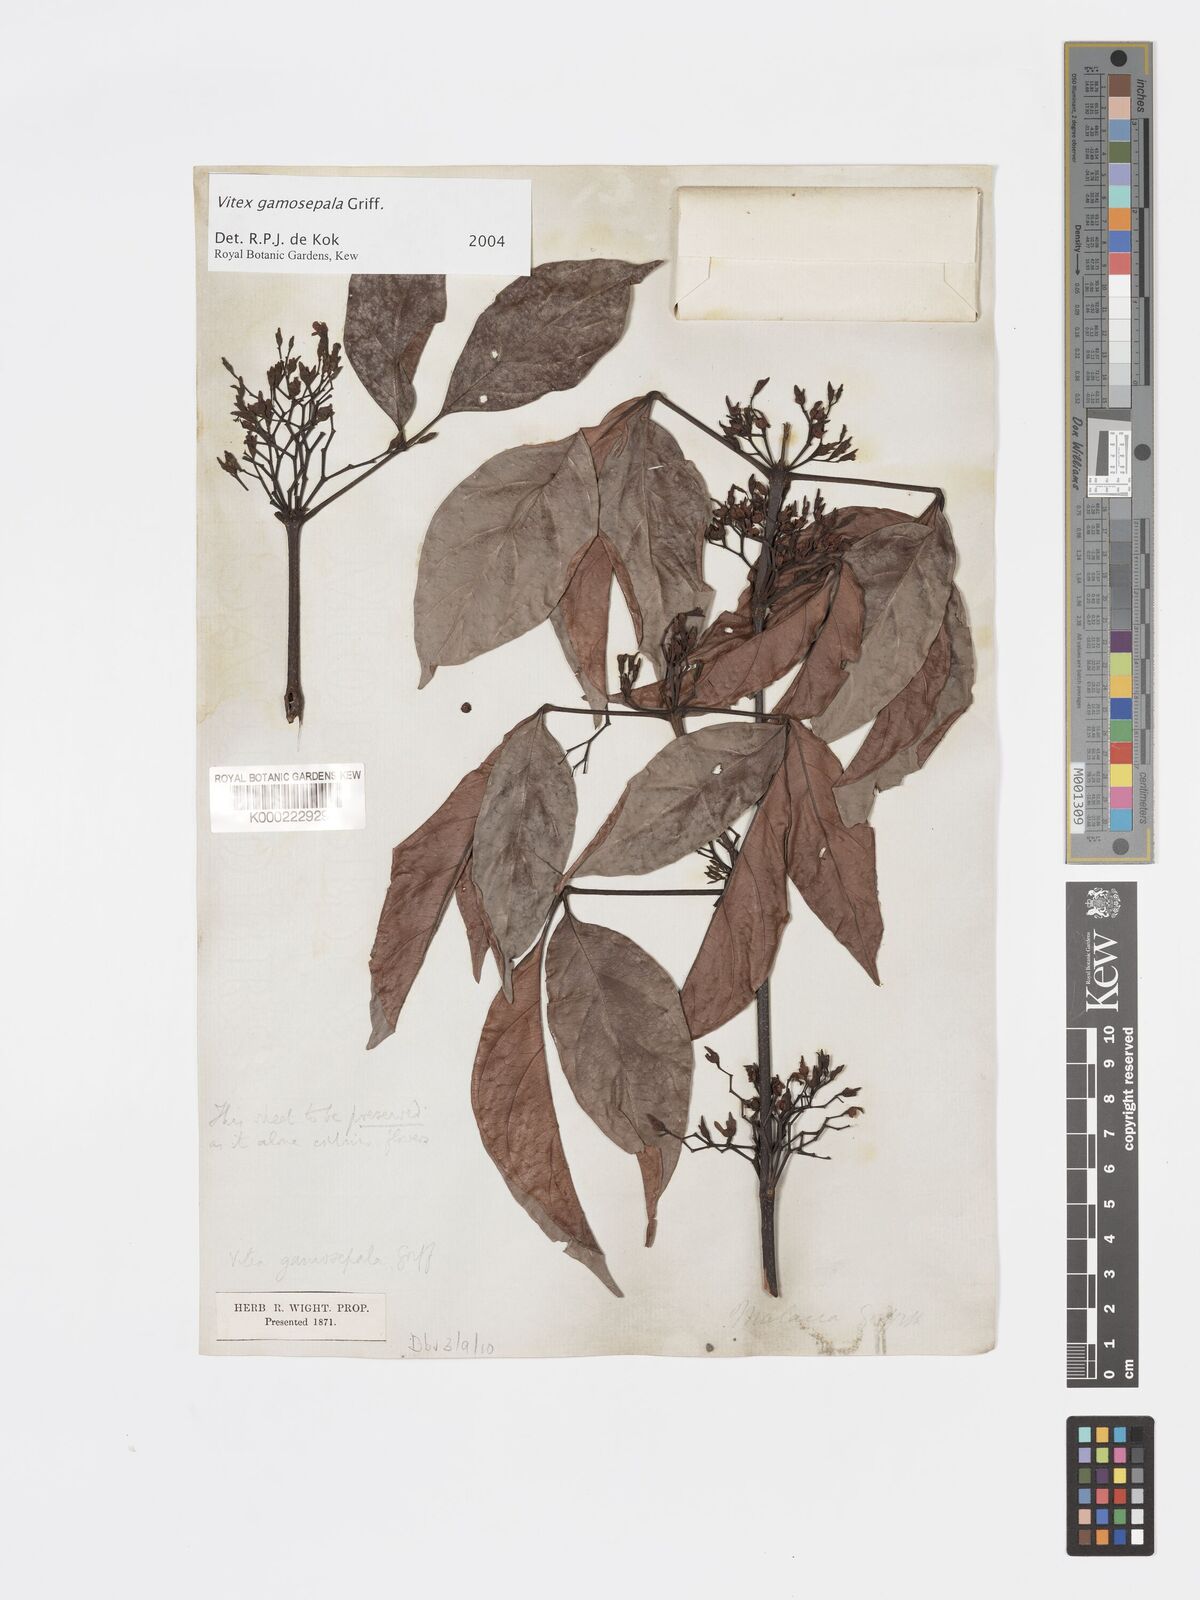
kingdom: Plantae
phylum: Tracheophyta
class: Magnoliopsida
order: Lamiales
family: Lamiaceae
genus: Vitex
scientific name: Vitex gamosepala
